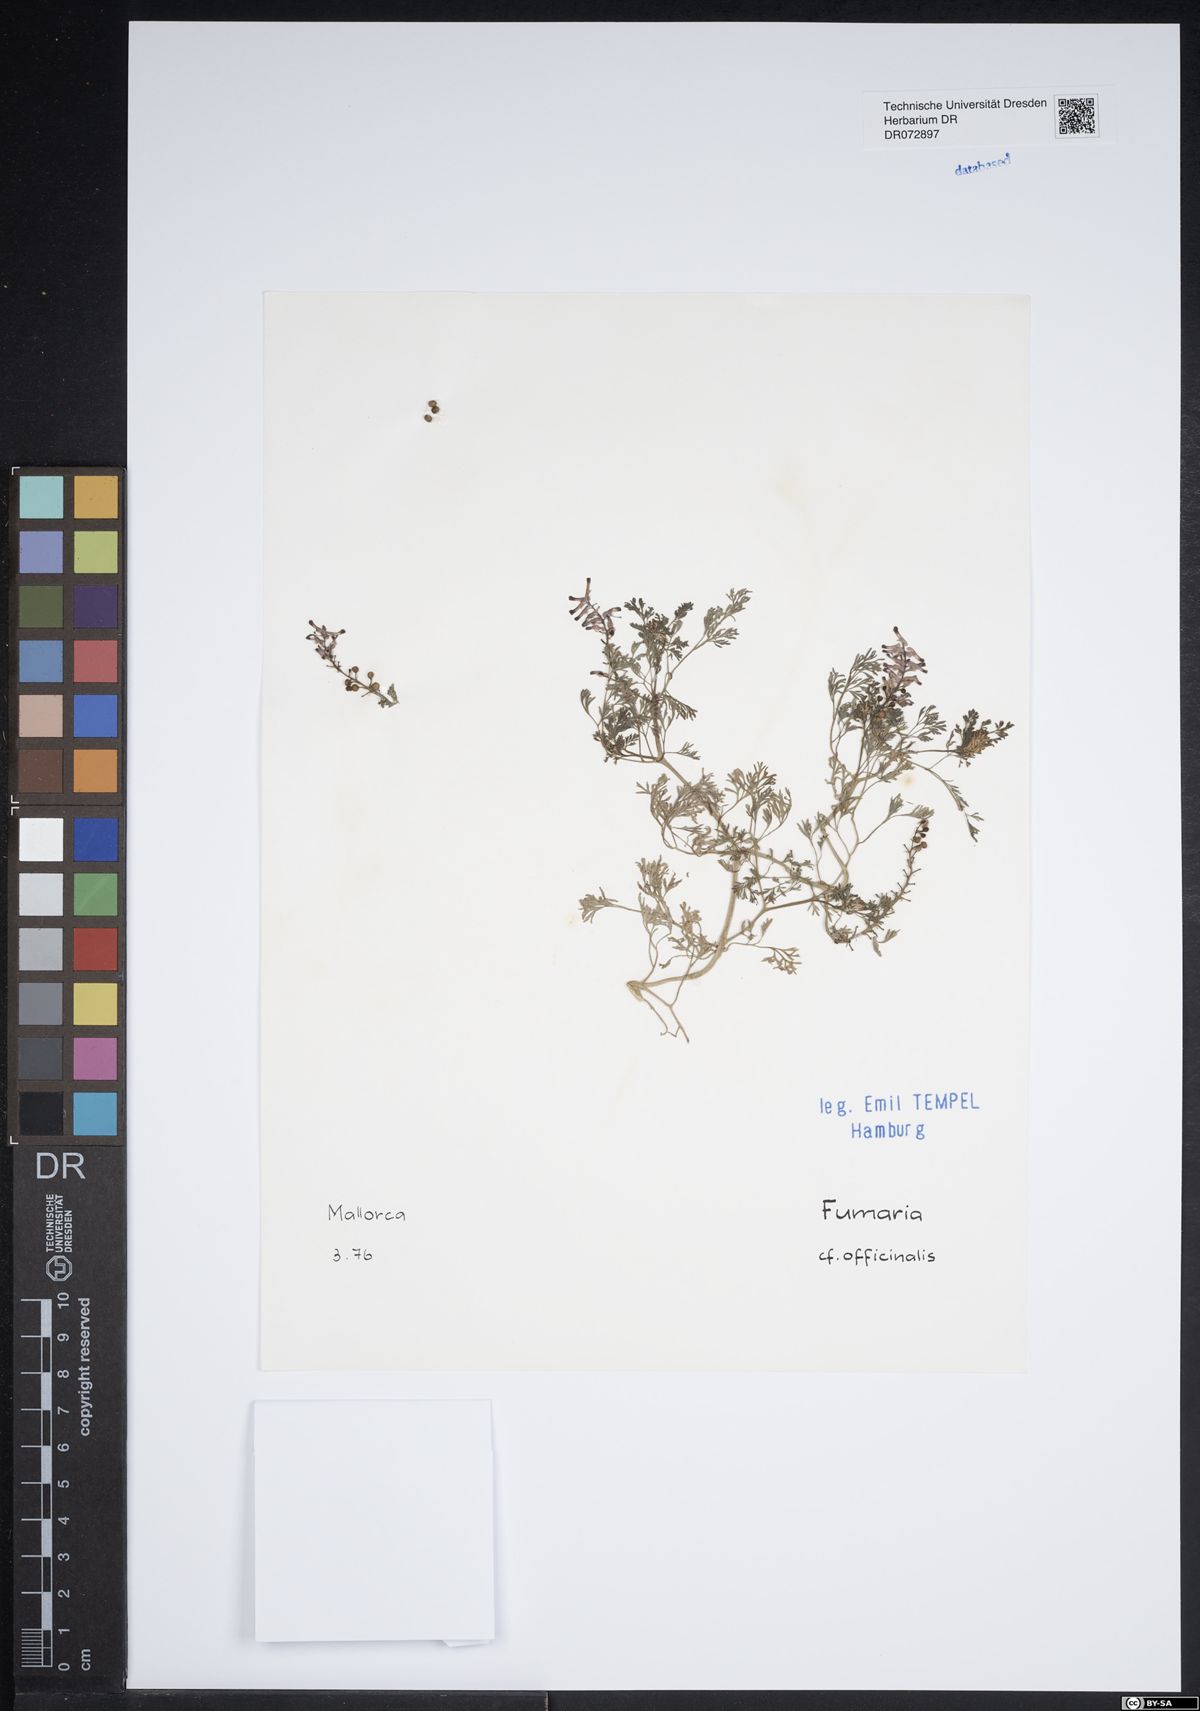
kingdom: Plantae
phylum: Tracheophyta
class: Magnoliopsida
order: Ranunculales
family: Papaveraceae
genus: Fumaria
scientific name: Fumaria officinalis
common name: Common fumitory
